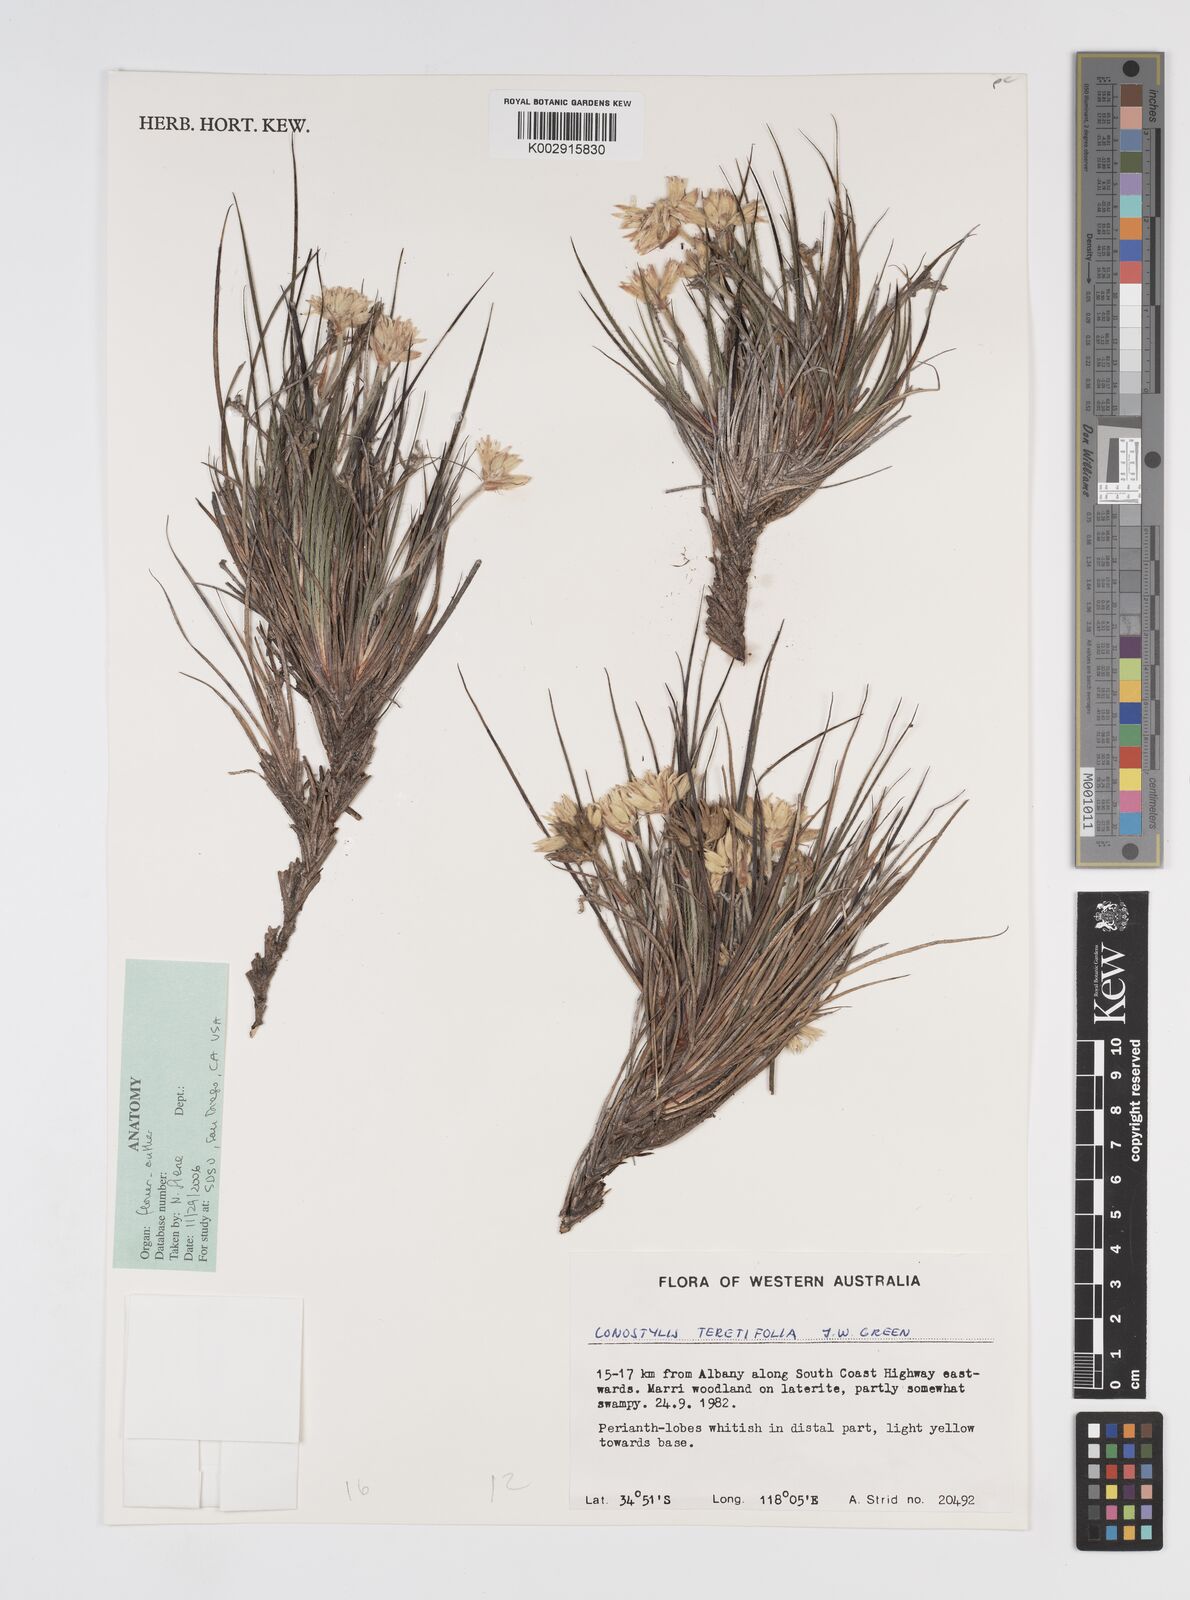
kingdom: Plantae
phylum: Tracheophyta
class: Liliopsida
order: Commelinales
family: Haemodoraceae
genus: Conostylis
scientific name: Conostylis teretifolia
